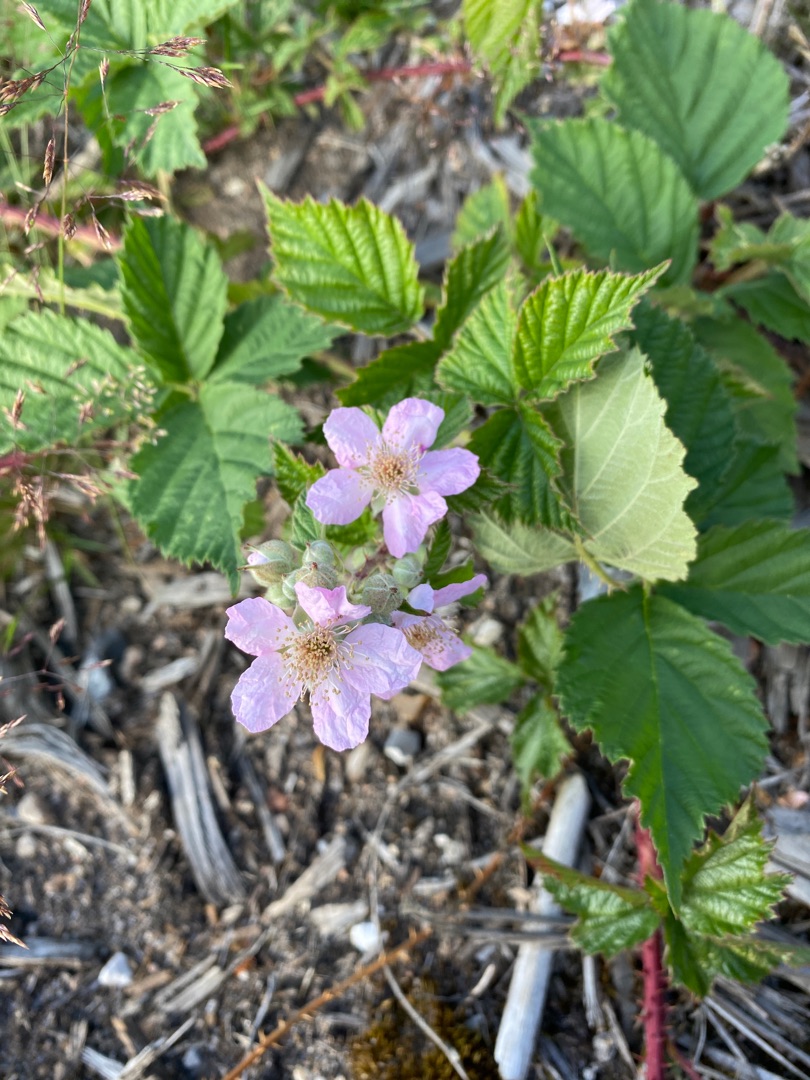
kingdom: Plantae
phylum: Tracheophyta
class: Magnoliopsida
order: Rosales
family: Rosaceae
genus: Rubus
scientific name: Rubus
